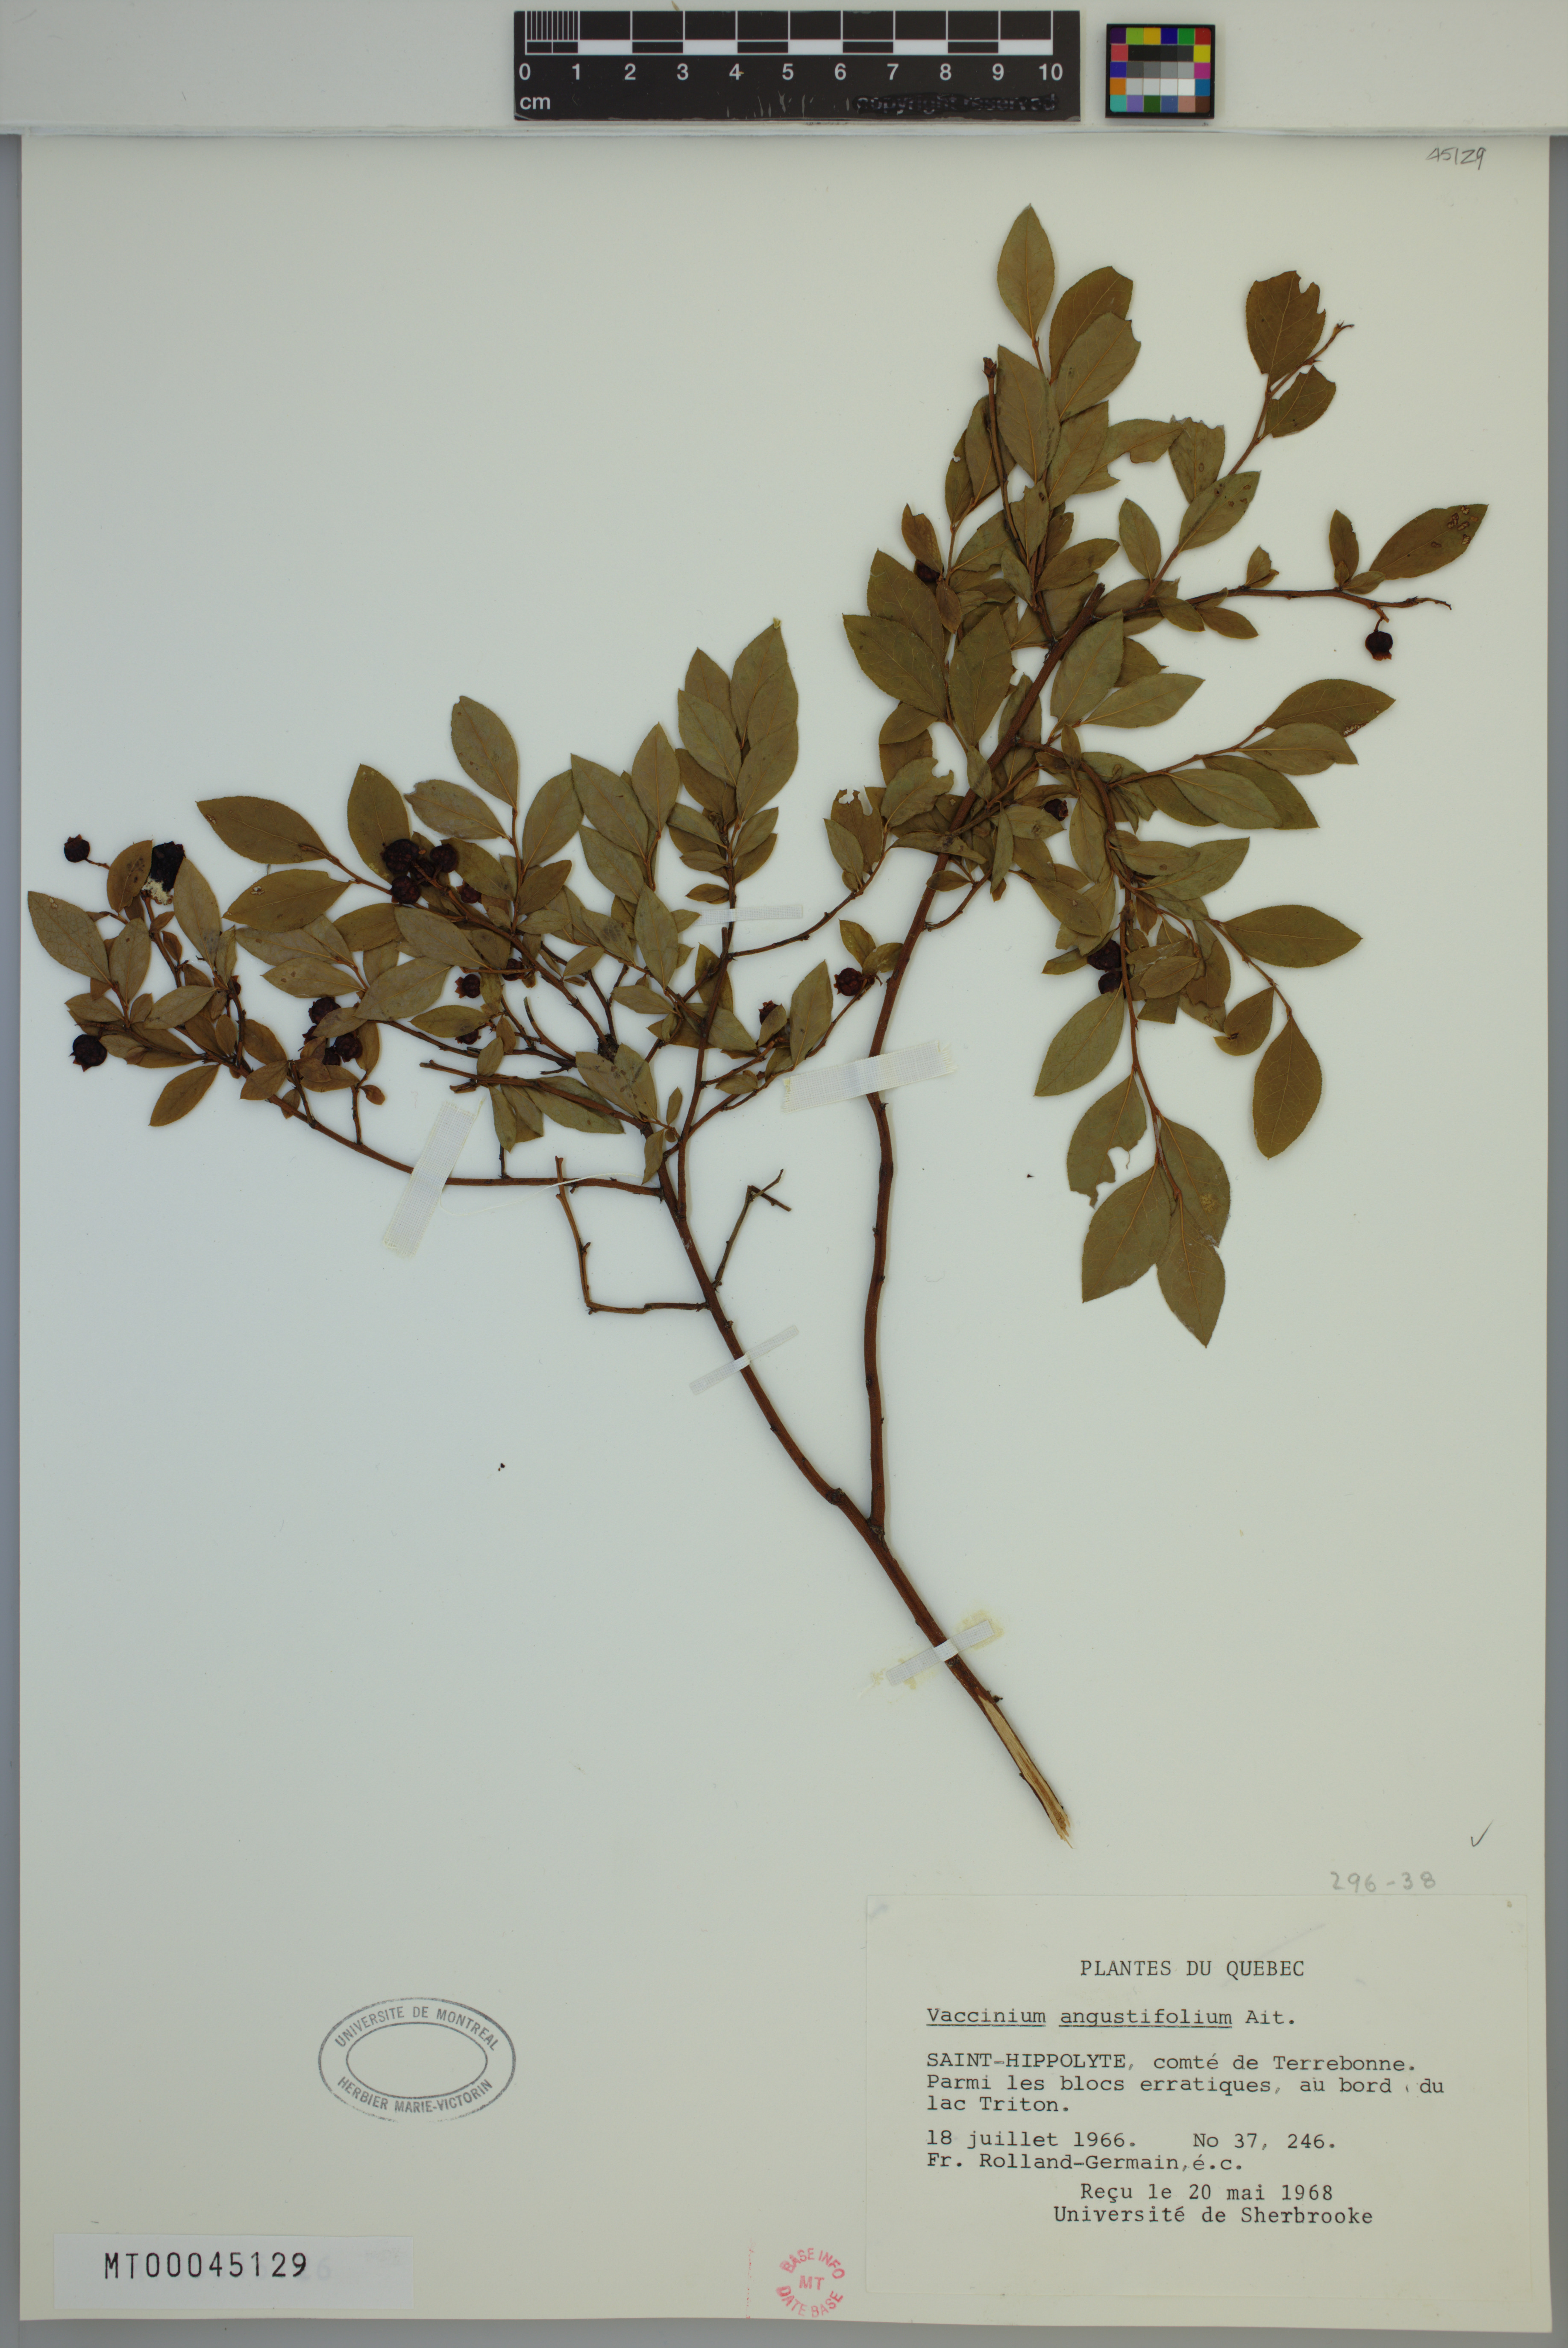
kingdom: Plantae
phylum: Tracheophyta
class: Magnoliopsida
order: Ericales
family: Ericaceae
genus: Vaccinium
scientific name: Vaccinium angustifolium
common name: Early lowbush blueberry
